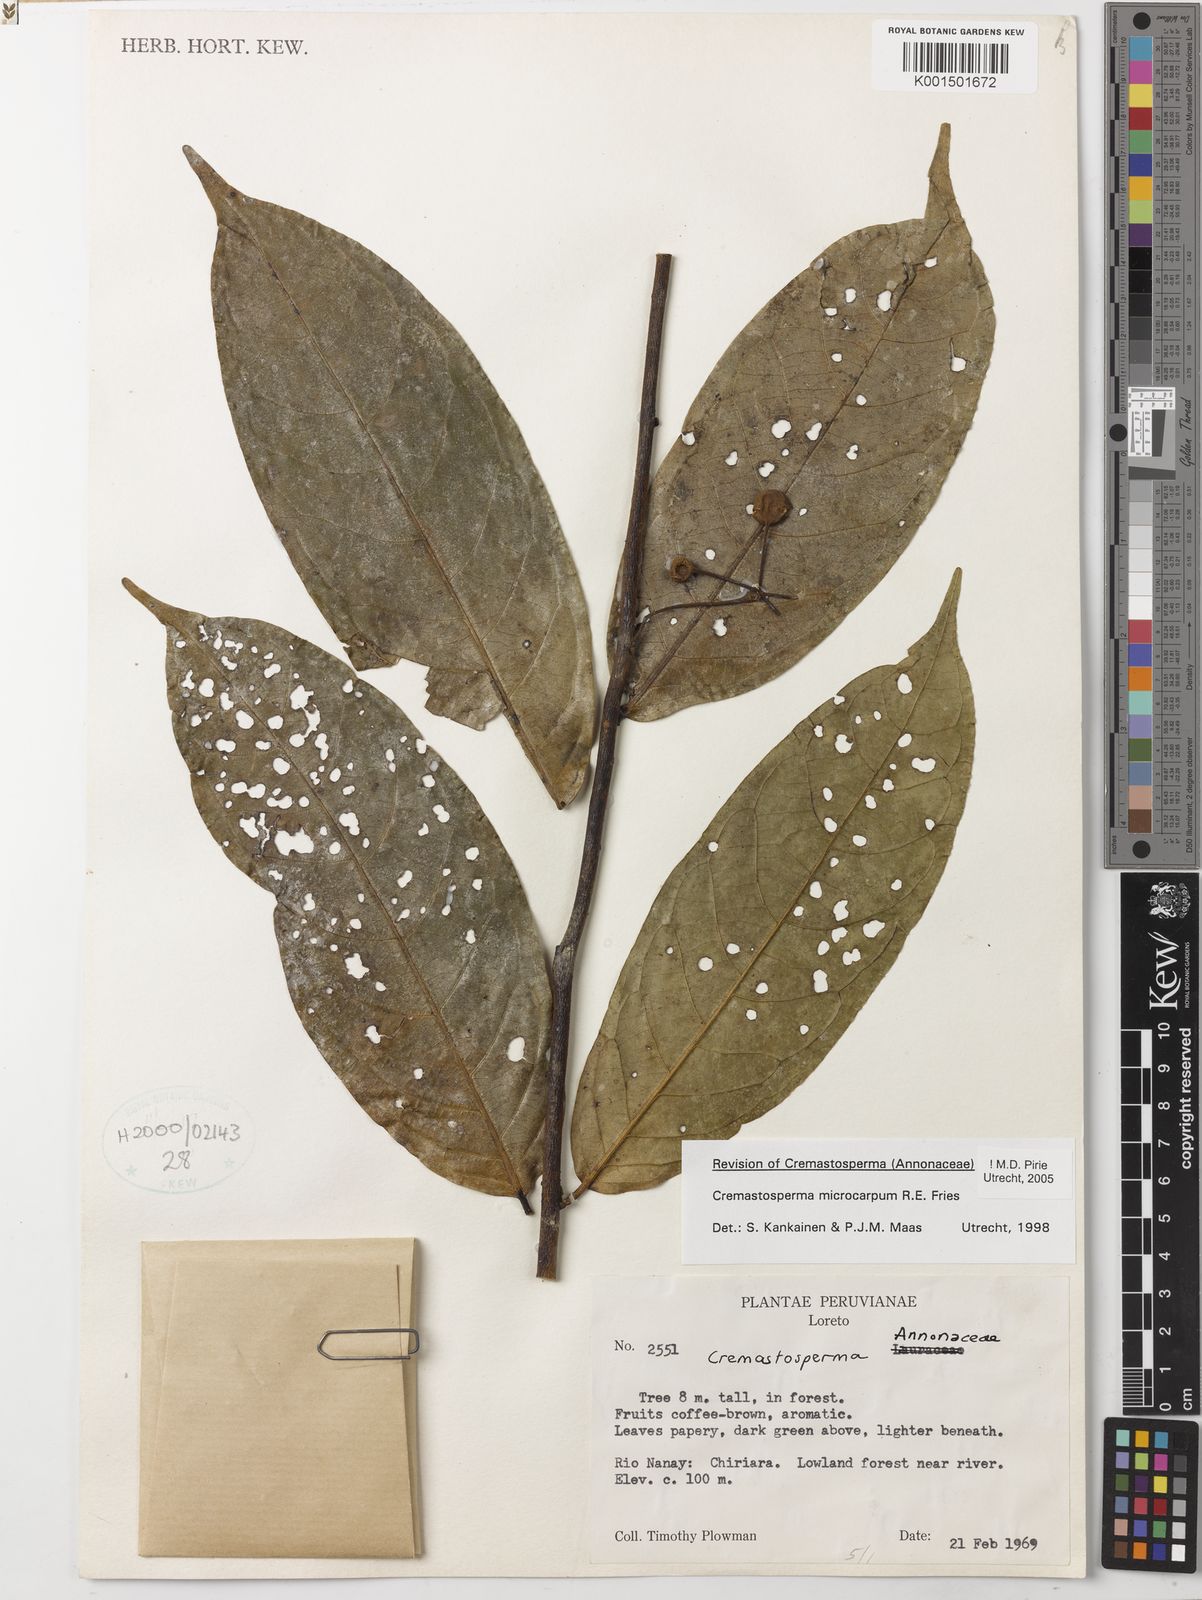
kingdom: Plantae
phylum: Tracheophyta
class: Magnoliopsida
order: Magnoliales
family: Annonaceae
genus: Cremastosperma
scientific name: Cremastosperma microcarpum
